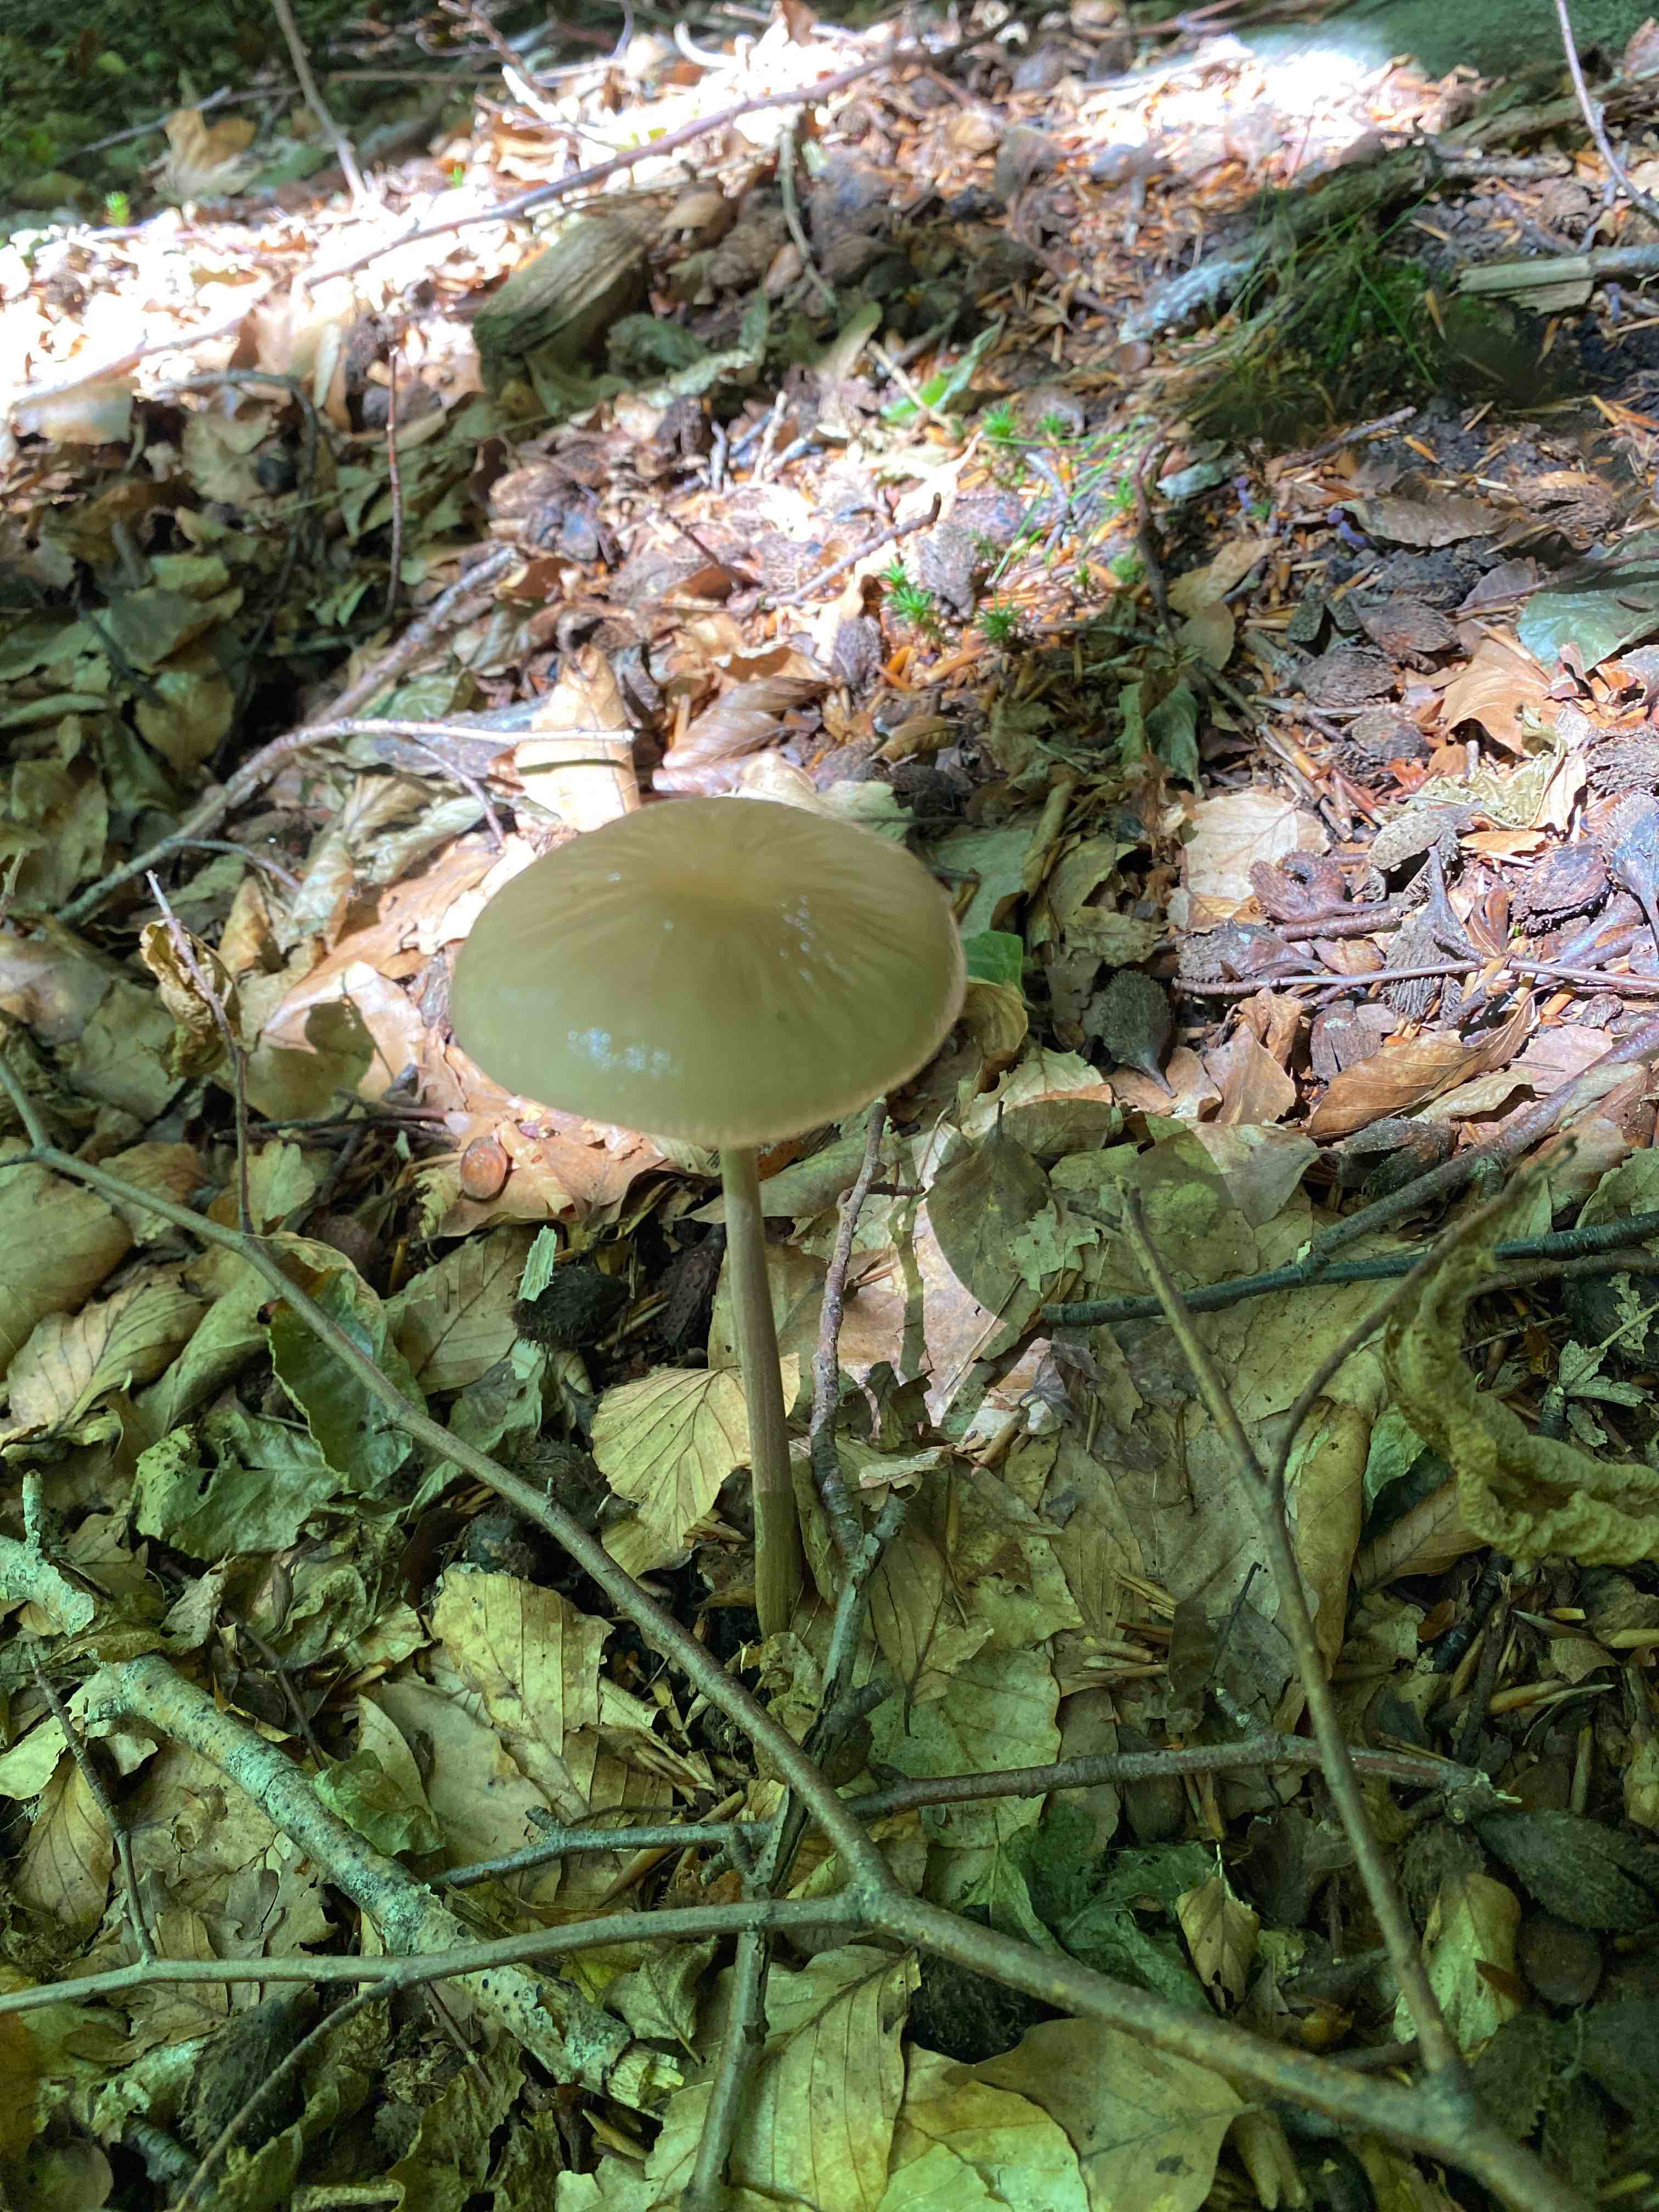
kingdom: Fungi
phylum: Basidiomycota
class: Agaricomycetes
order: Agaricales
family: Physalacriaceae
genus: Hymenopellis
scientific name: Hymenopellis radicata
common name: almindelig pælerodshat
